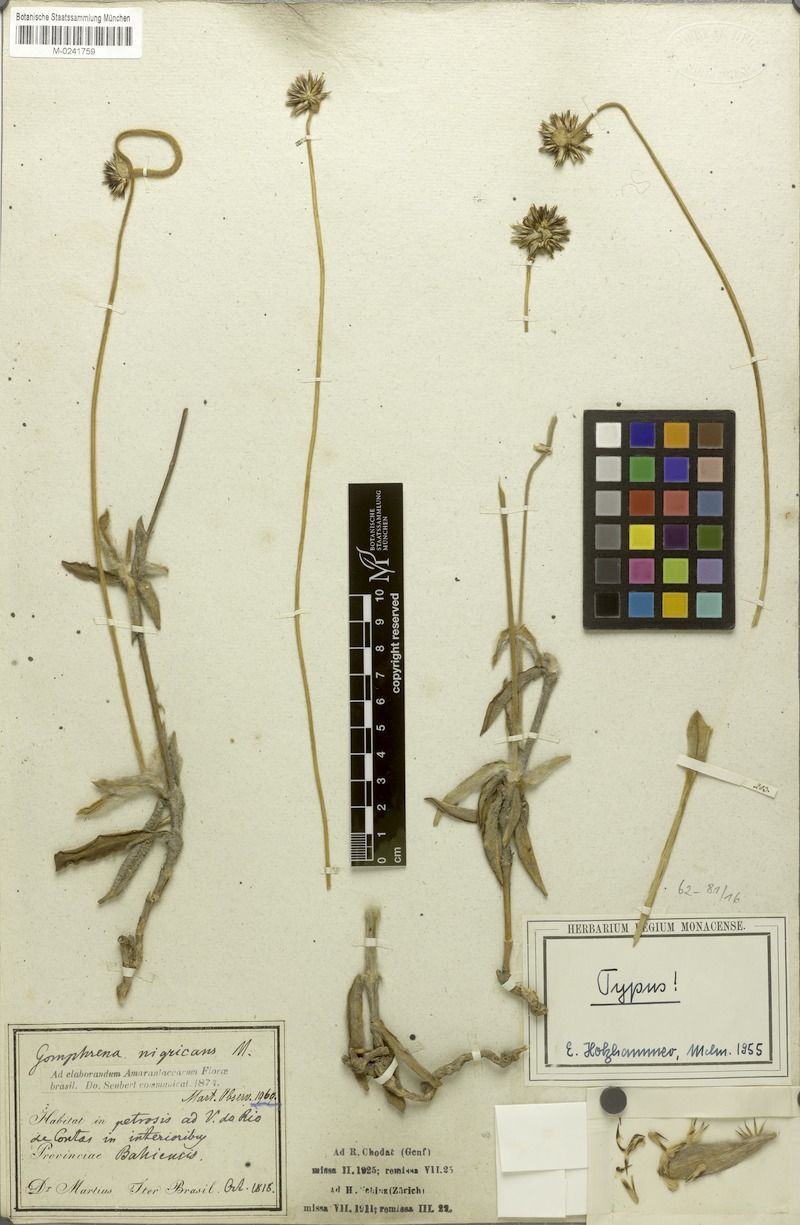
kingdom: Plantae
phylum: Tracheophyta
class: Magnoliopsida
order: Caryophyllales
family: Amaranthaceae
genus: Gomphrena
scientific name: Gomphrena nigricans
